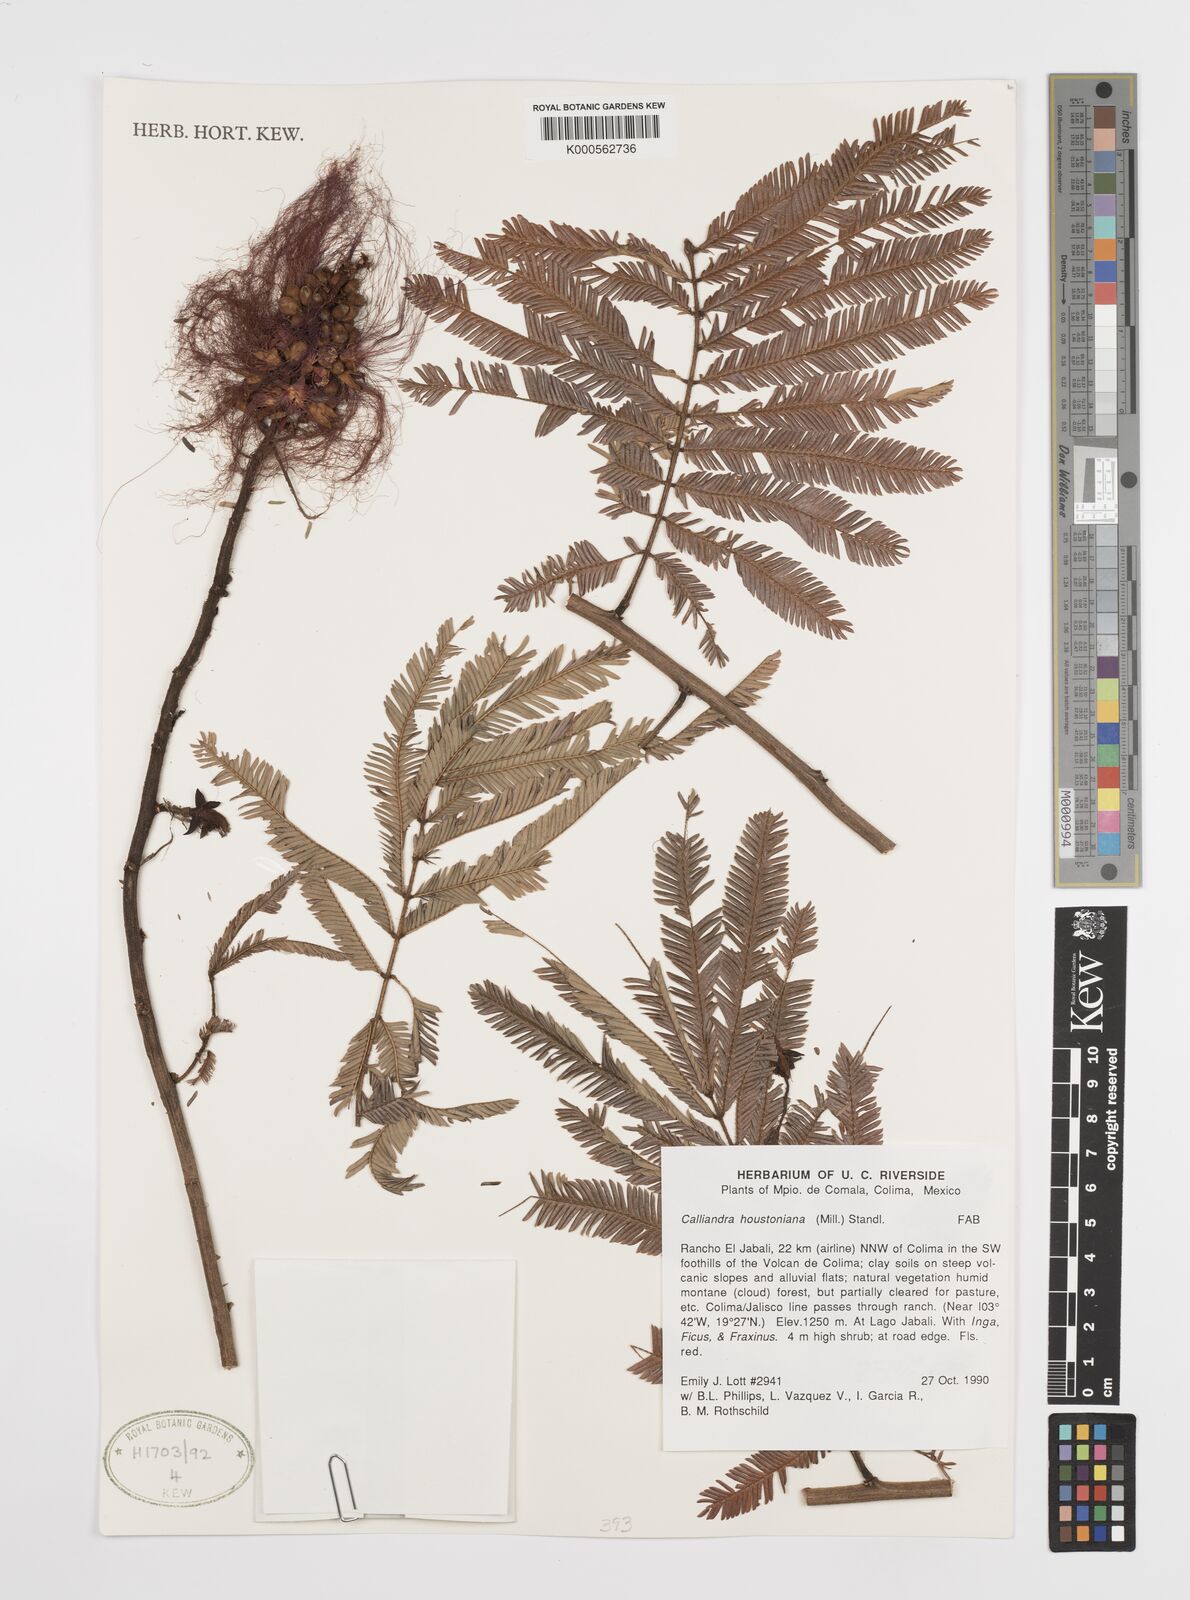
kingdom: Plantae
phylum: Tracheophyta
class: Magnoliopsida
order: Fabales
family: Fabaceae
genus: Calliandra
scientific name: Calliandra houstoniana
